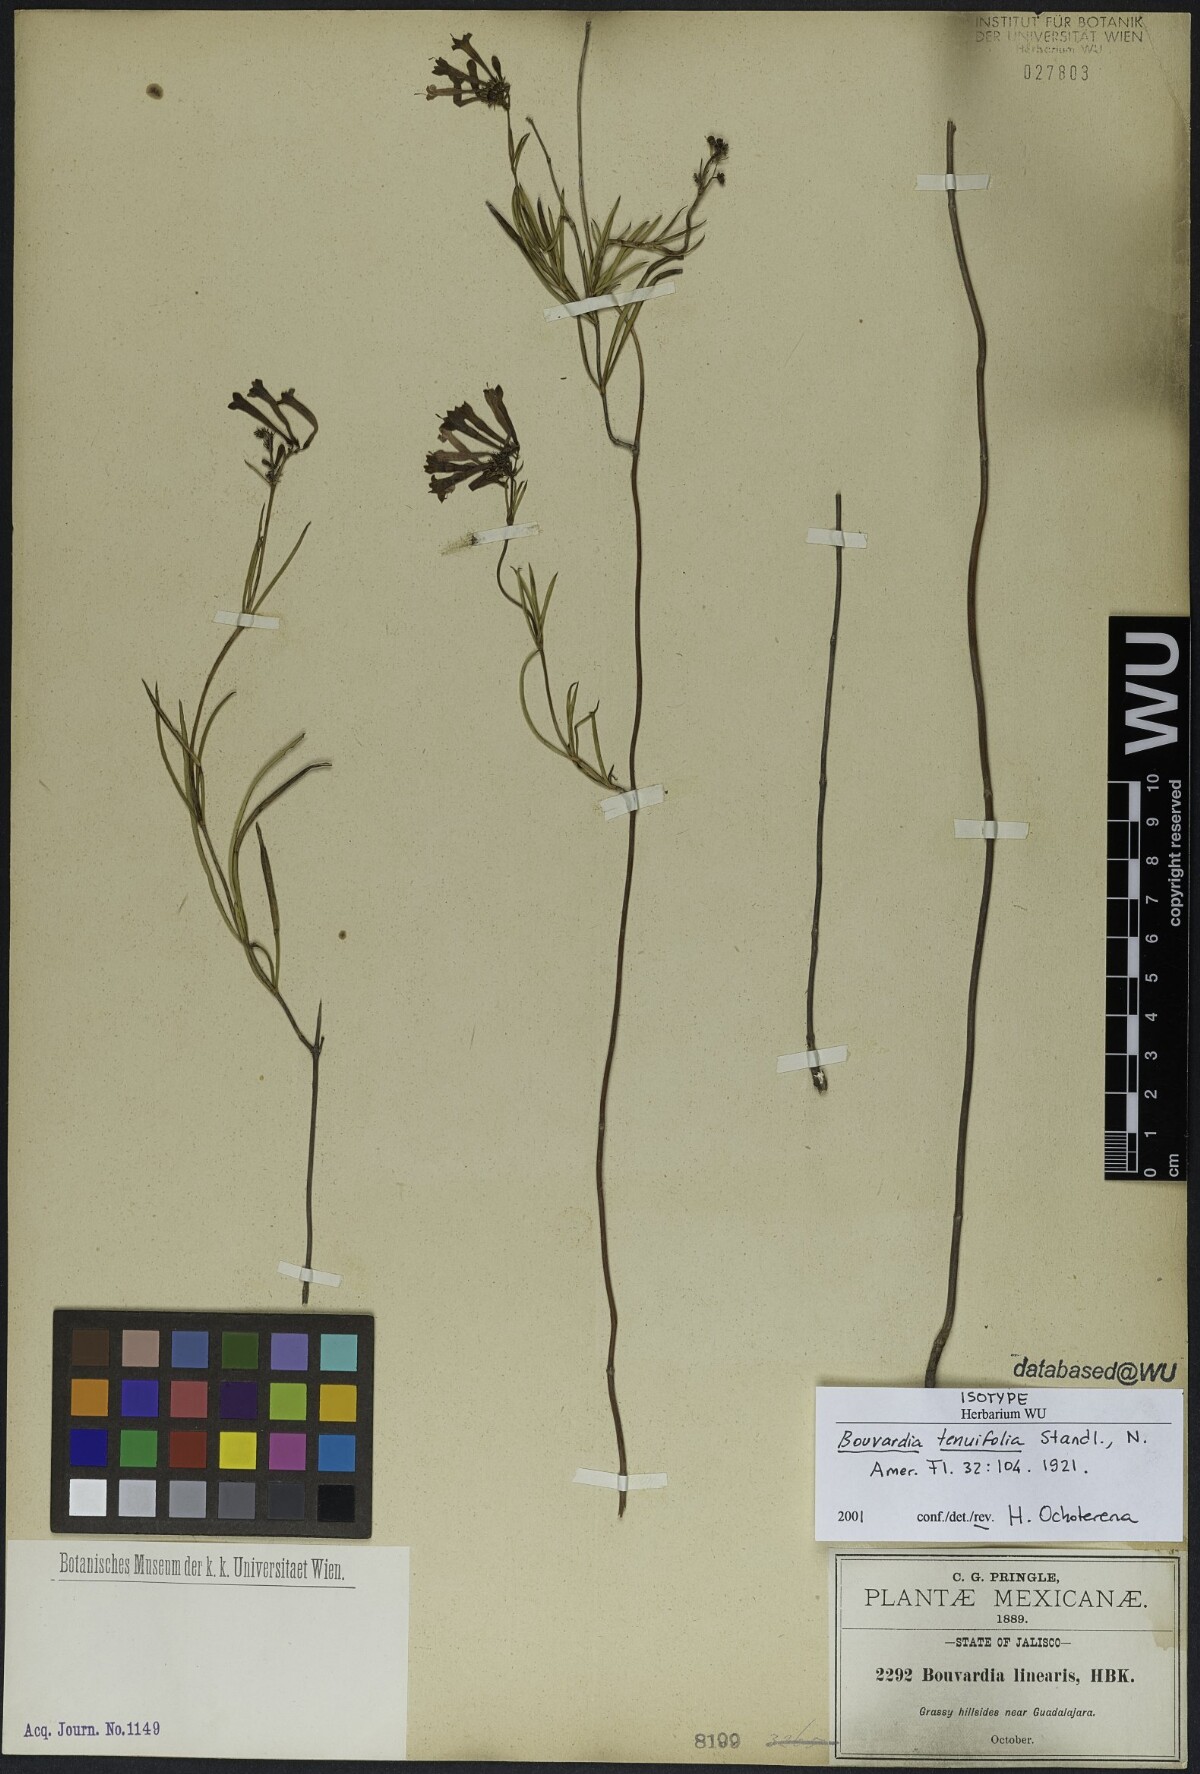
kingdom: Plantae
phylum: Tracheophyta
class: Magnoliopsida
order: Gentianales
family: Rubiaceae
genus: Bouvardia
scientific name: Bouvardia tenuifolia
